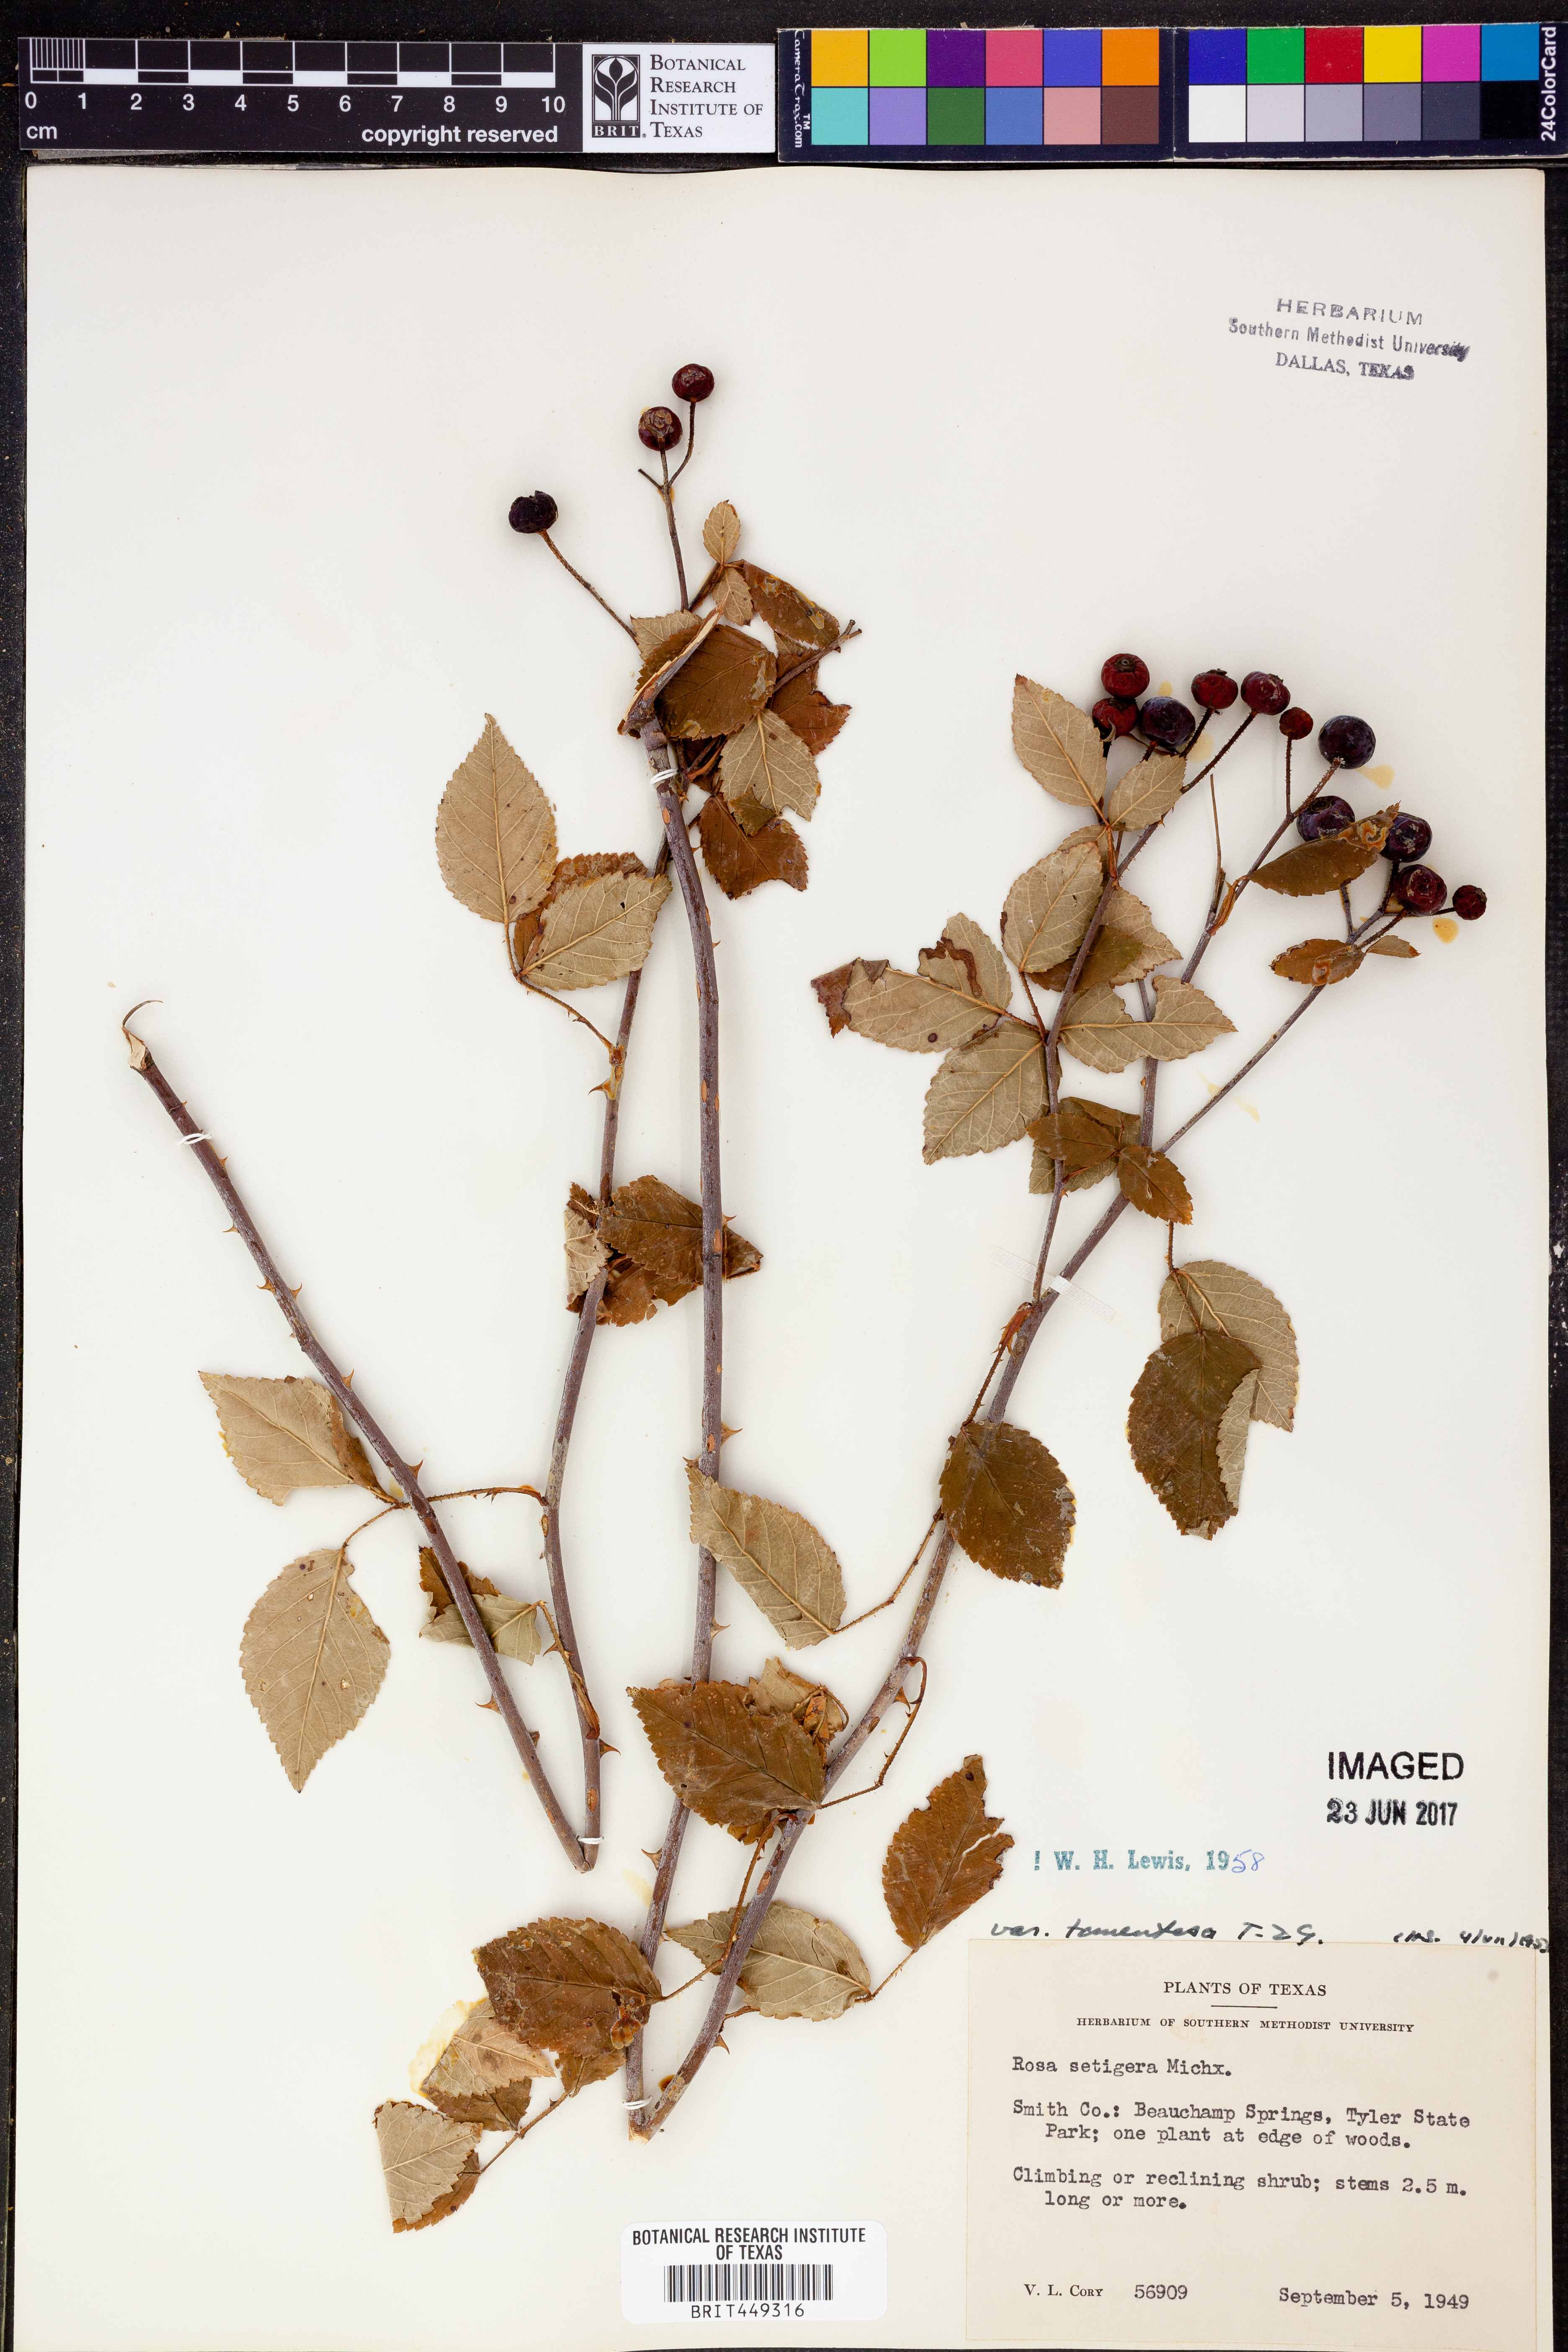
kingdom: Plantae
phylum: Tracheophyta
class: Magnoliopsida
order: Rosales
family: Rosaceae
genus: Rosa
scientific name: Rosa setigera
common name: Prairie rose
